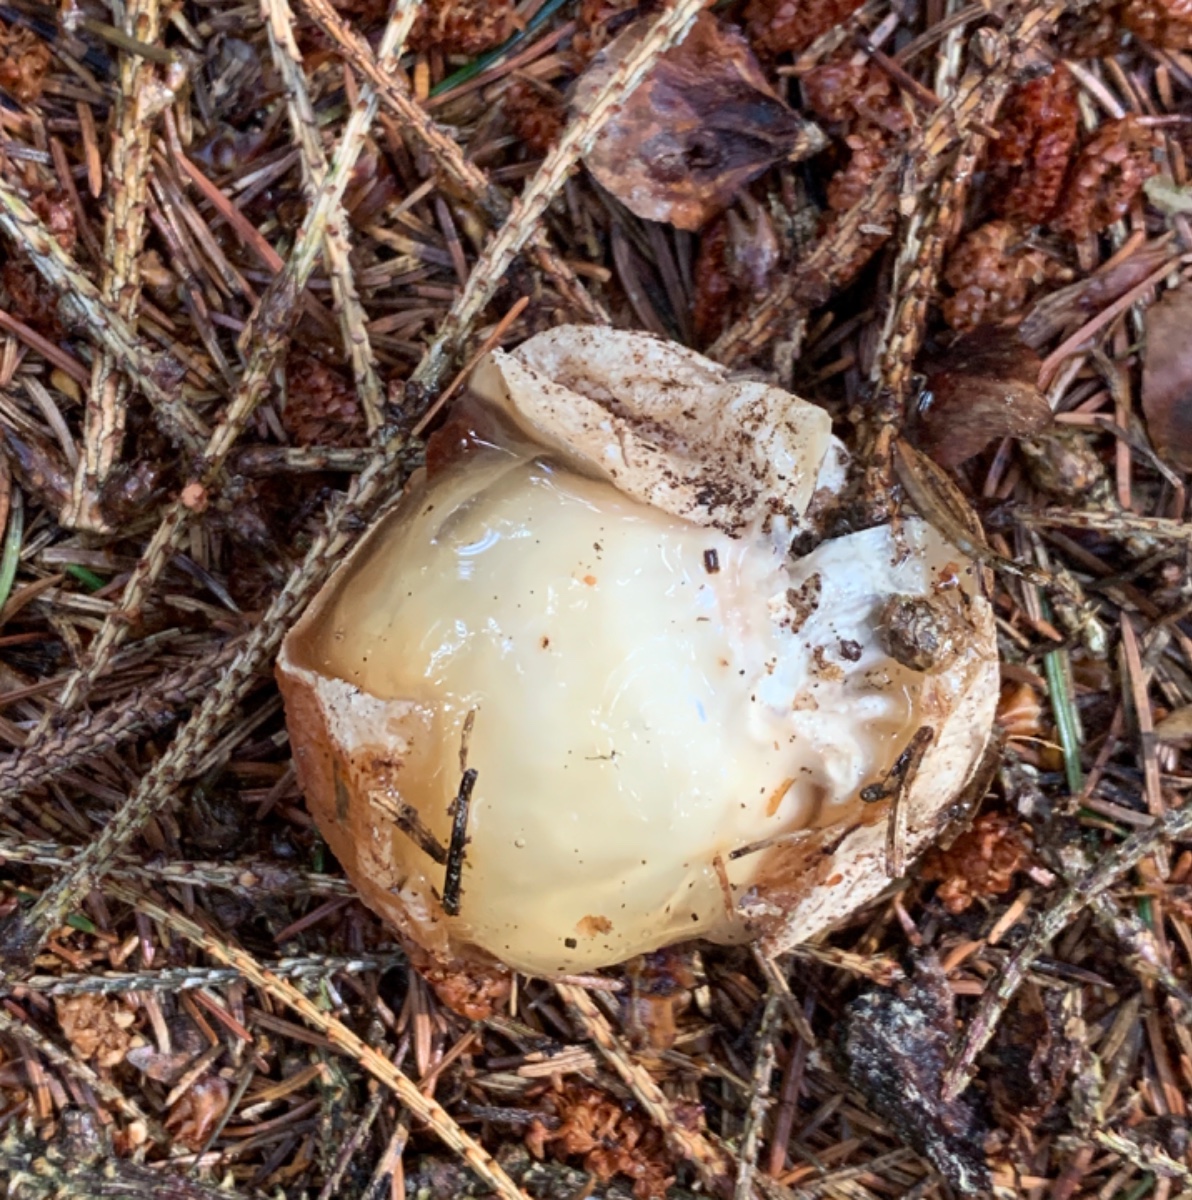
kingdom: Fungi
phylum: Basidiomycota
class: Agaricomycetes
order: Phallales
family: Phallaceae
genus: Phallus
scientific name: Phallus impudicus
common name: almindelig stinksvamp
